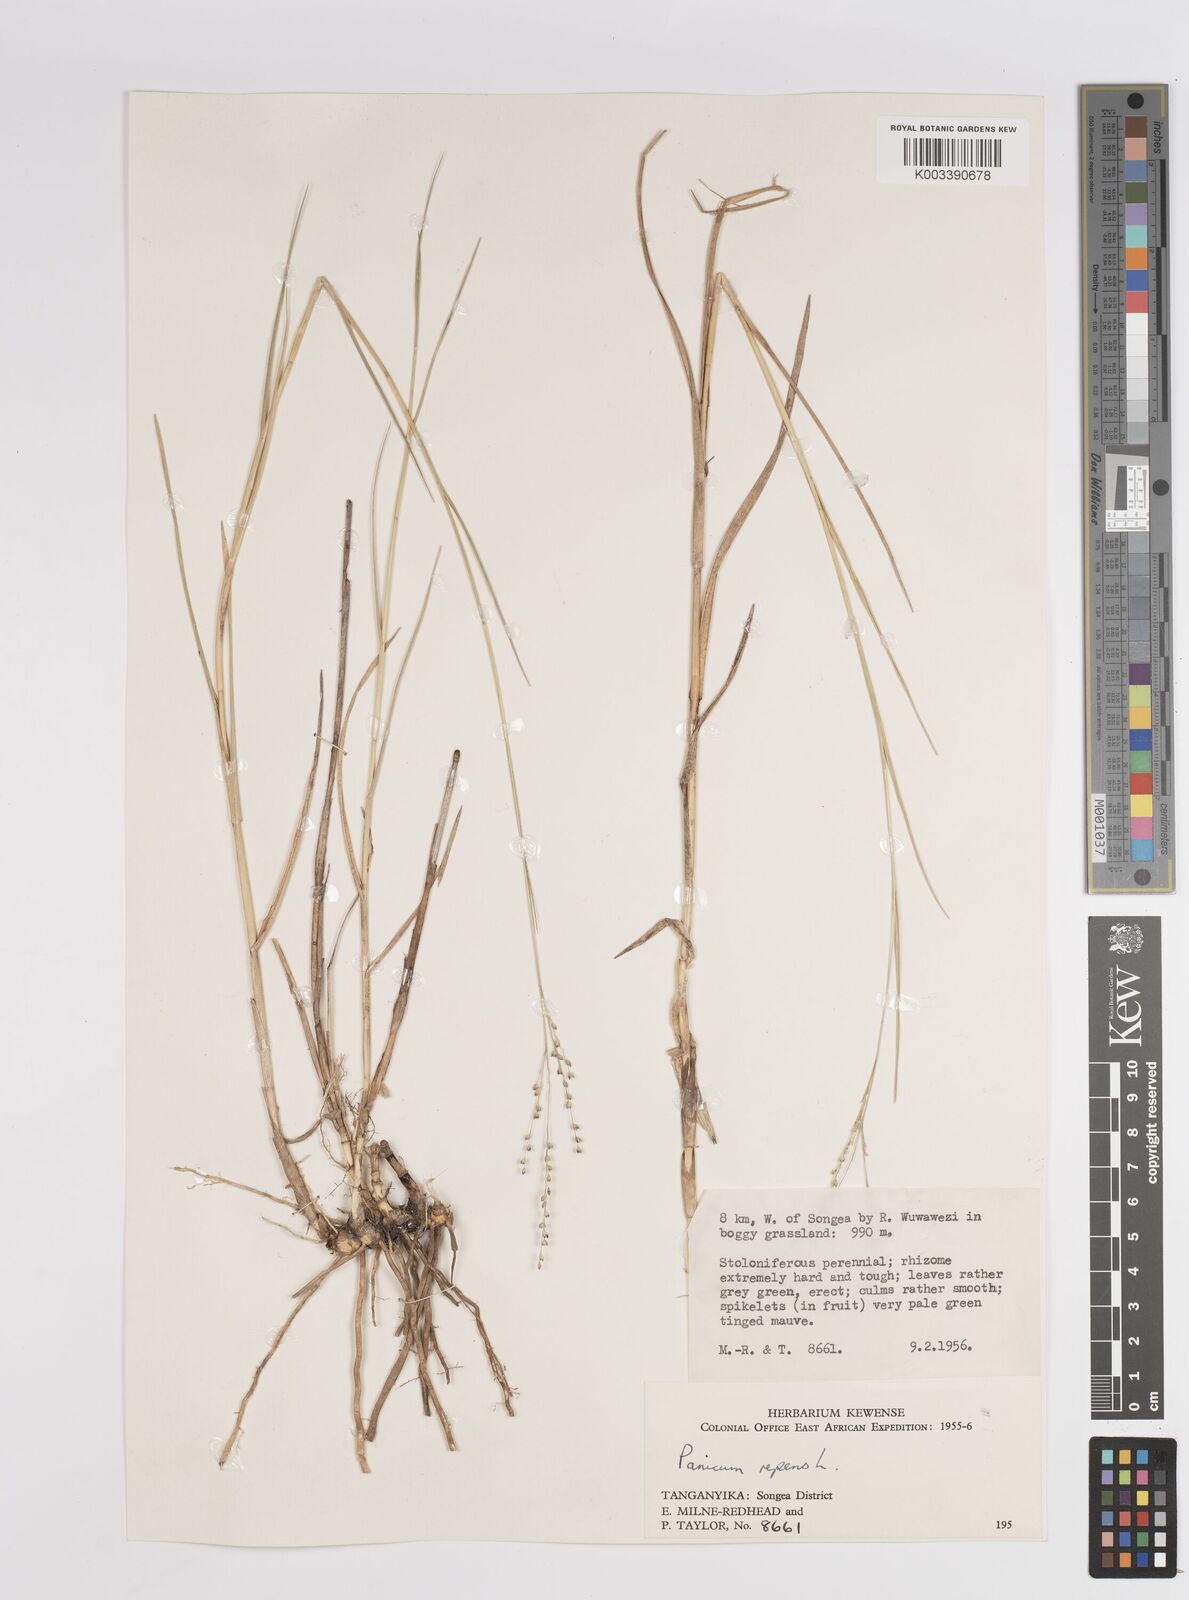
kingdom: Plantae
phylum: Tracheophyta
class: Liliopsida
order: Poales
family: Poaceae
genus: Panicum
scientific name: Panicum repens
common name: Torpedo grass
